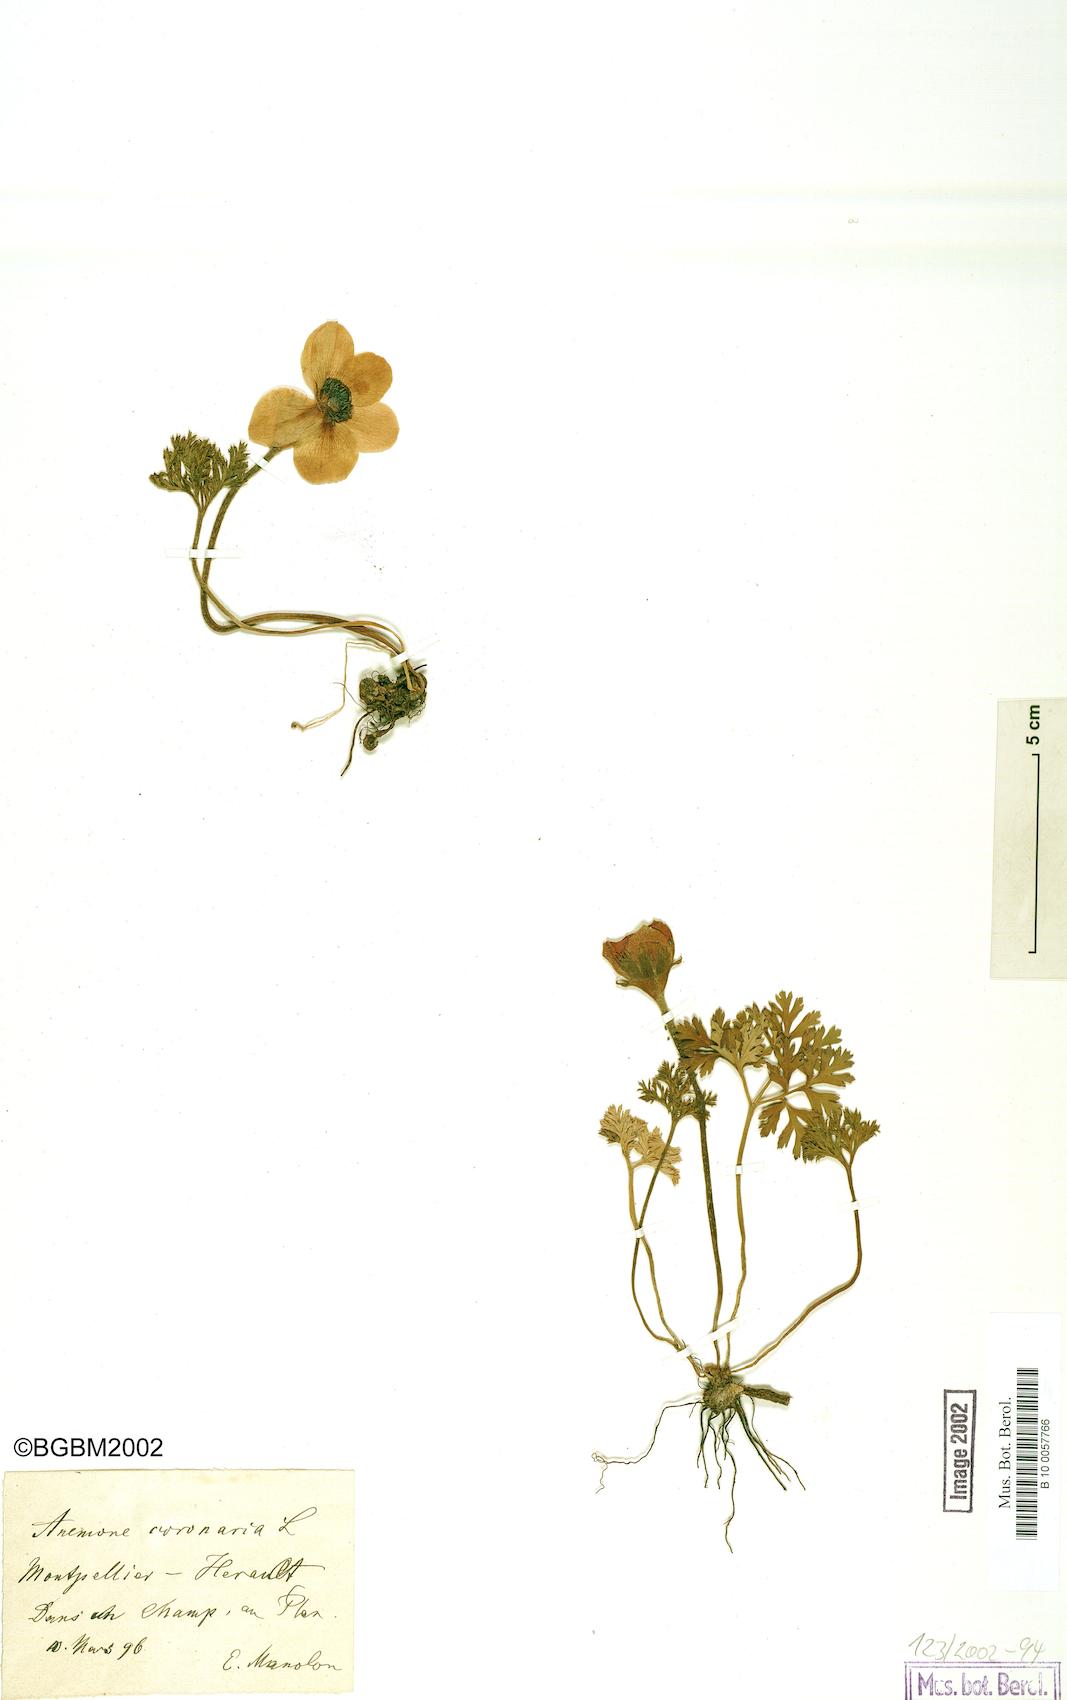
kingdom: Plantae
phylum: Tracheophyta
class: Magnoliopsida
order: Ranunculales
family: Ranunculaceae
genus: Anemone
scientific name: Anemone coronaria
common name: Poppy anemone
